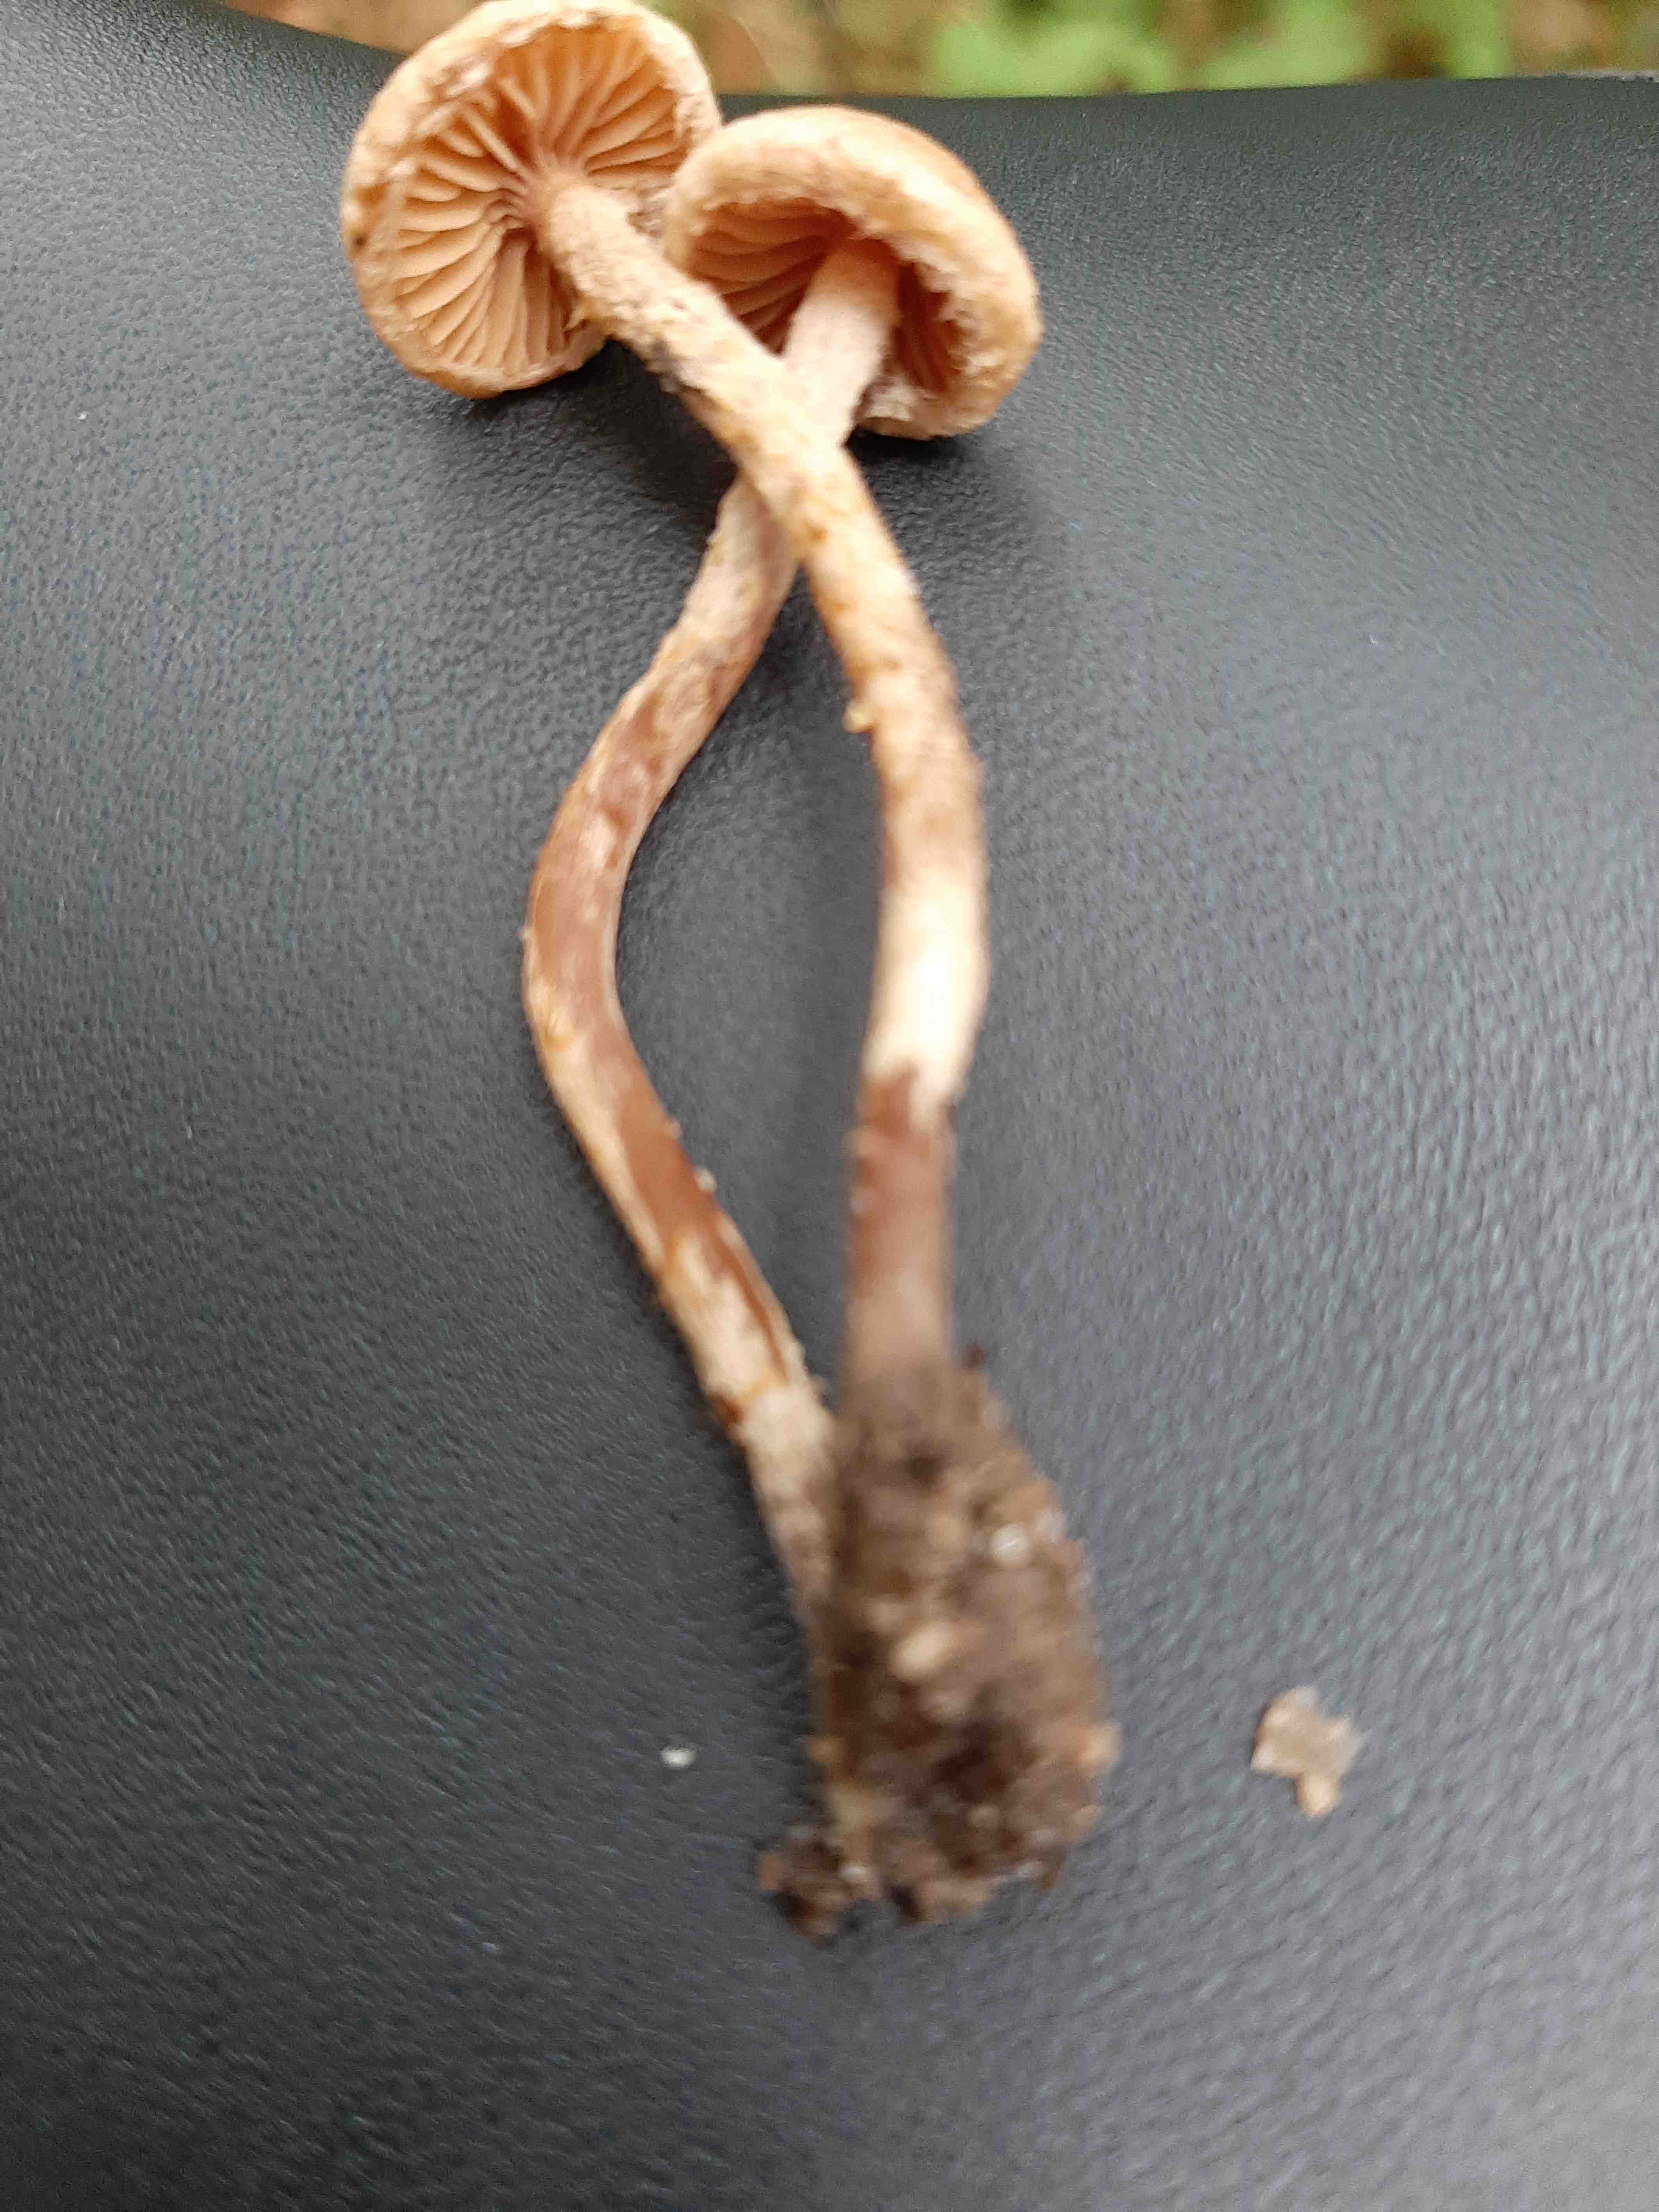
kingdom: Fungi
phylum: Basidiomycota
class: Agaricomycetes
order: Agaricales
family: Cortinariaceae
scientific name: Cortinariaceae
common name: slørhatfamilien
